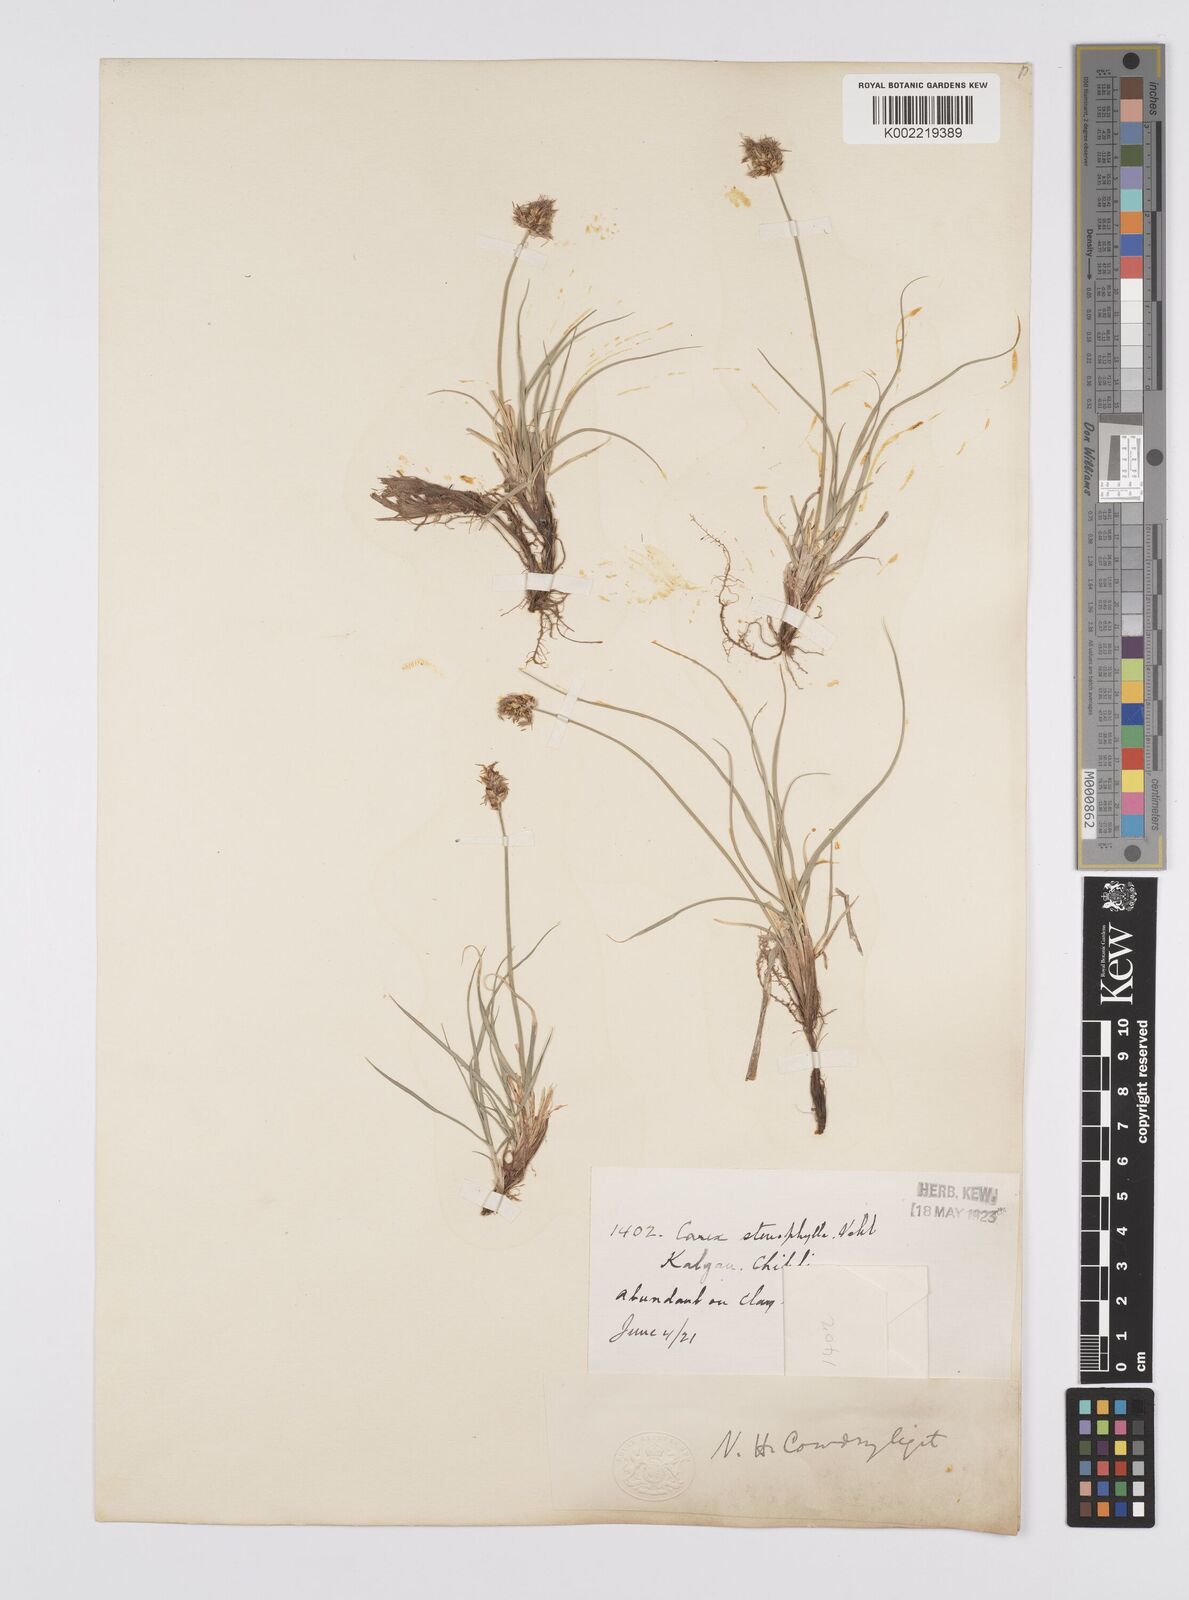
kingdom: Plantae
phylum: Tracheophyta
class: Liliopsida
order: Poales
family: Cyperaceae
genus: Carex
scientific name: Carex stenophylla
